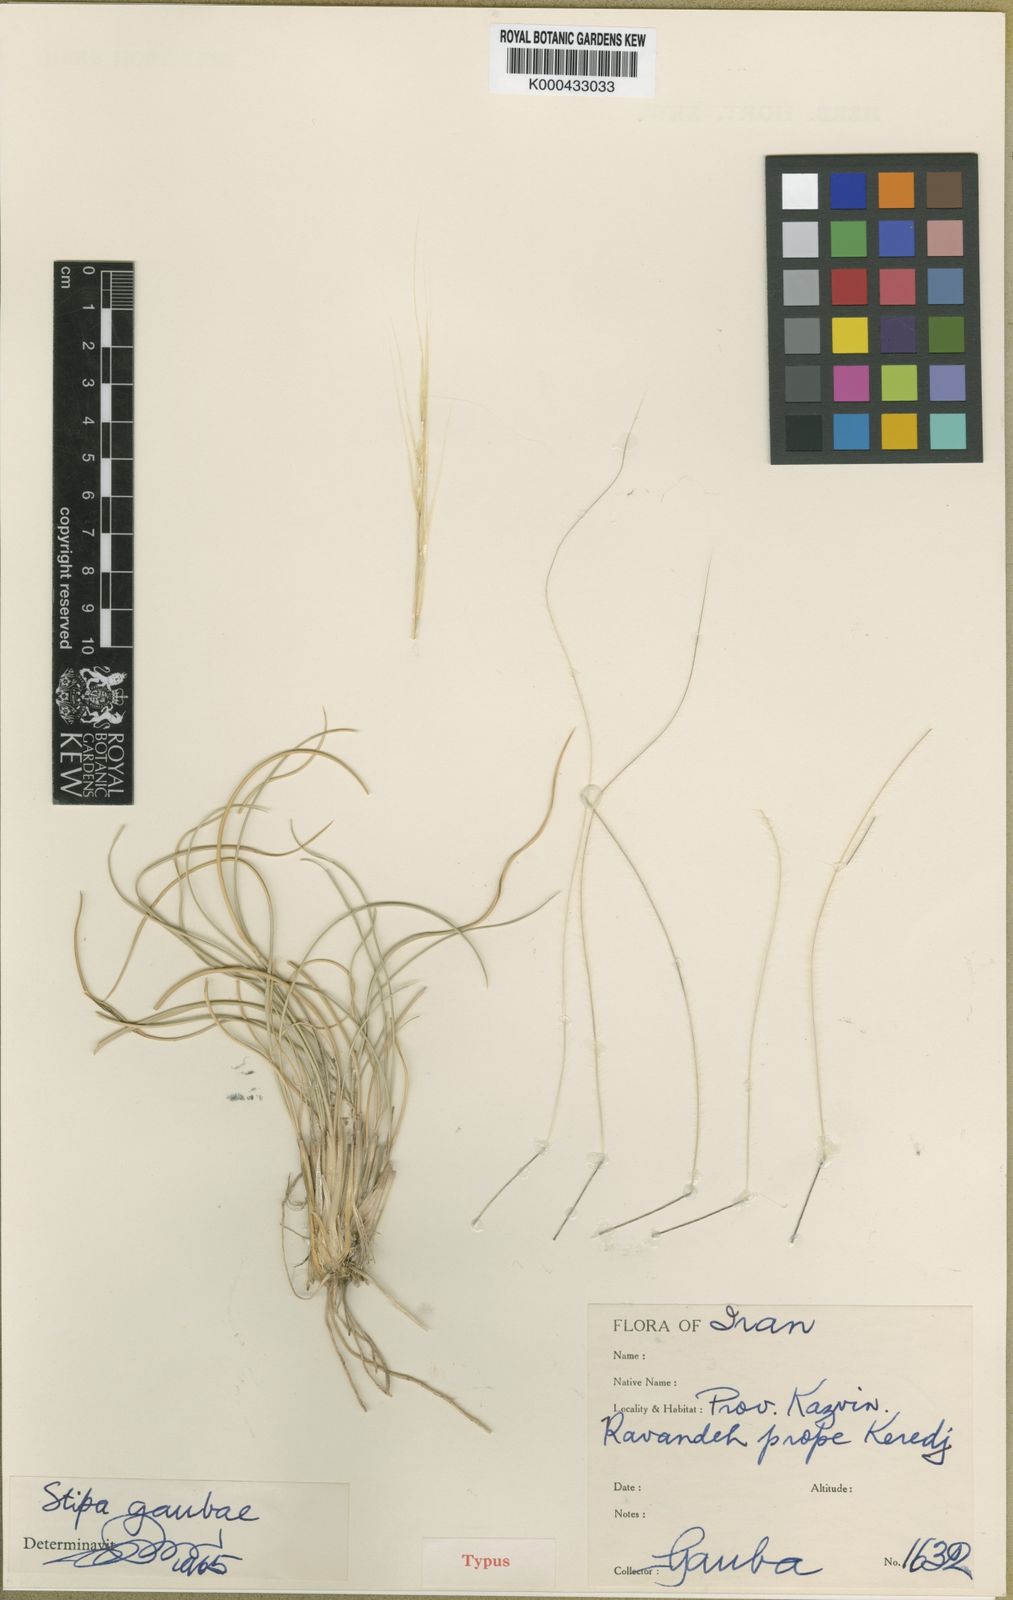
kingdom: Plantae
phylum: Tracheophyta
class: Liliopsida
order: Poales
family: Poaceae
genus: Stipa
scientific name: Stipa gaubae
